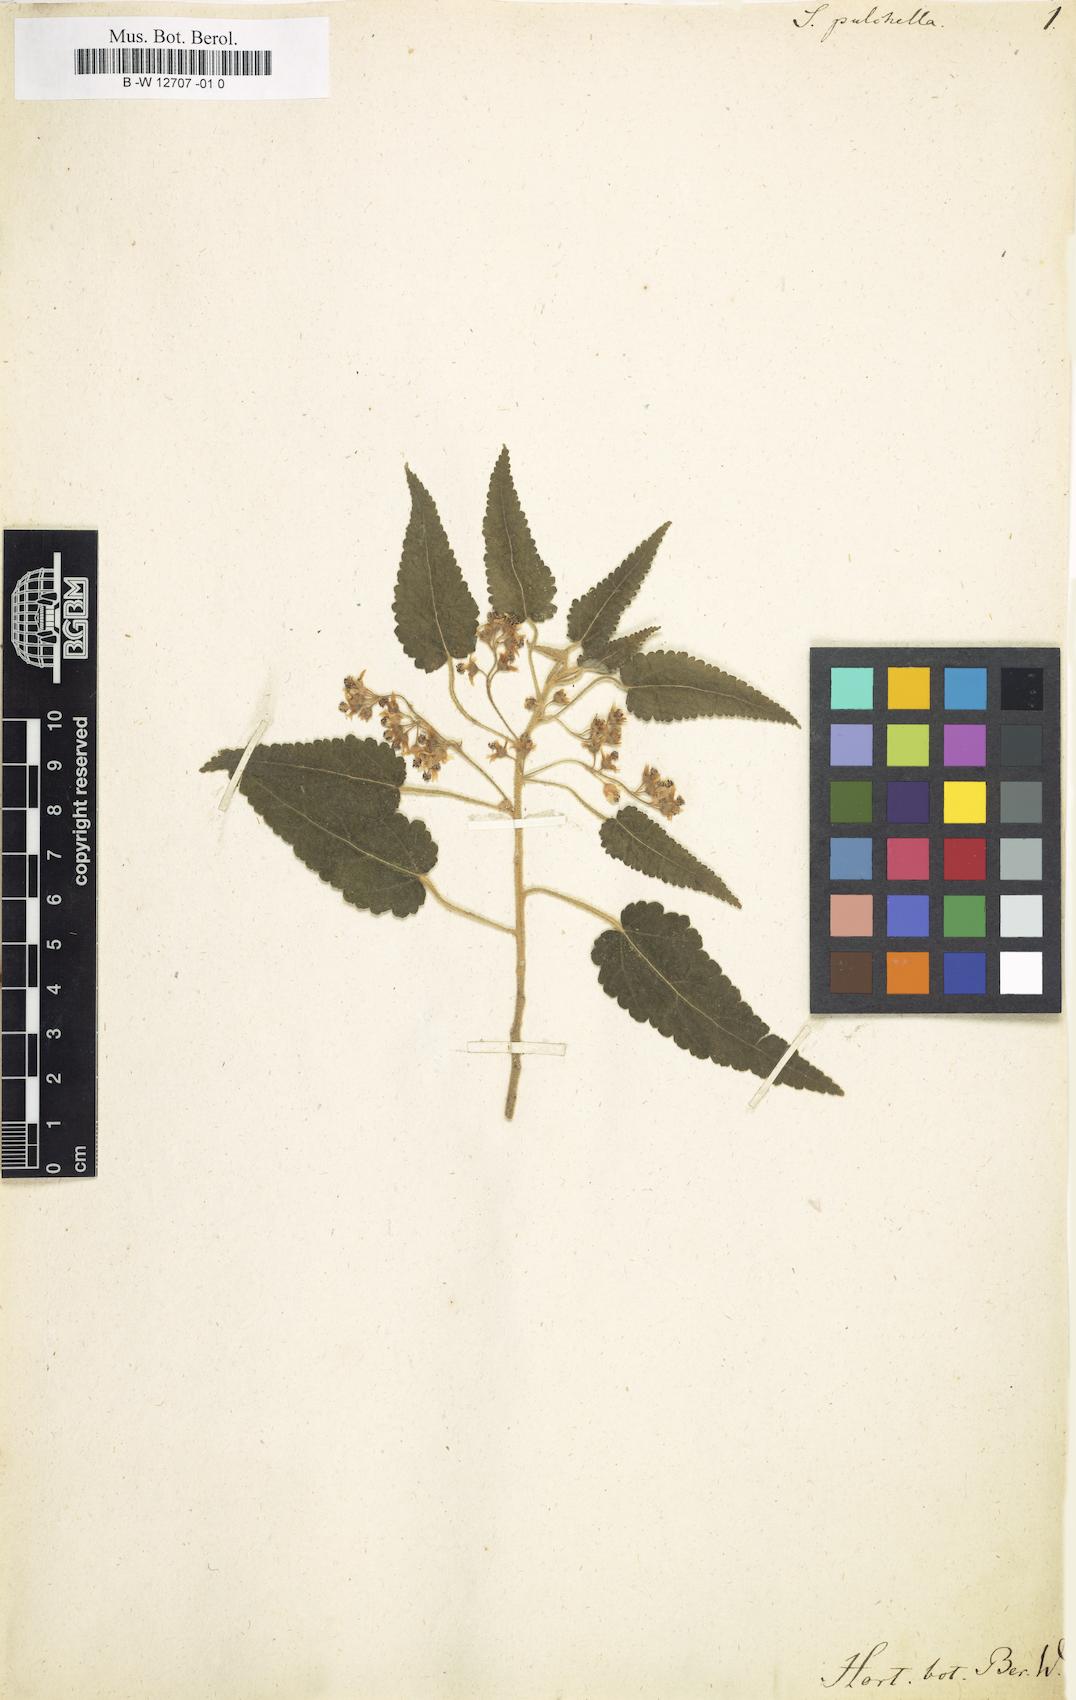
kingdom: Plantae
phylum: Tracheophyta
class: Magnoliopsida
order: Malvales
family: Malvaceae
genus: Gynatrix
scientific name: Gynatrix pulchella
